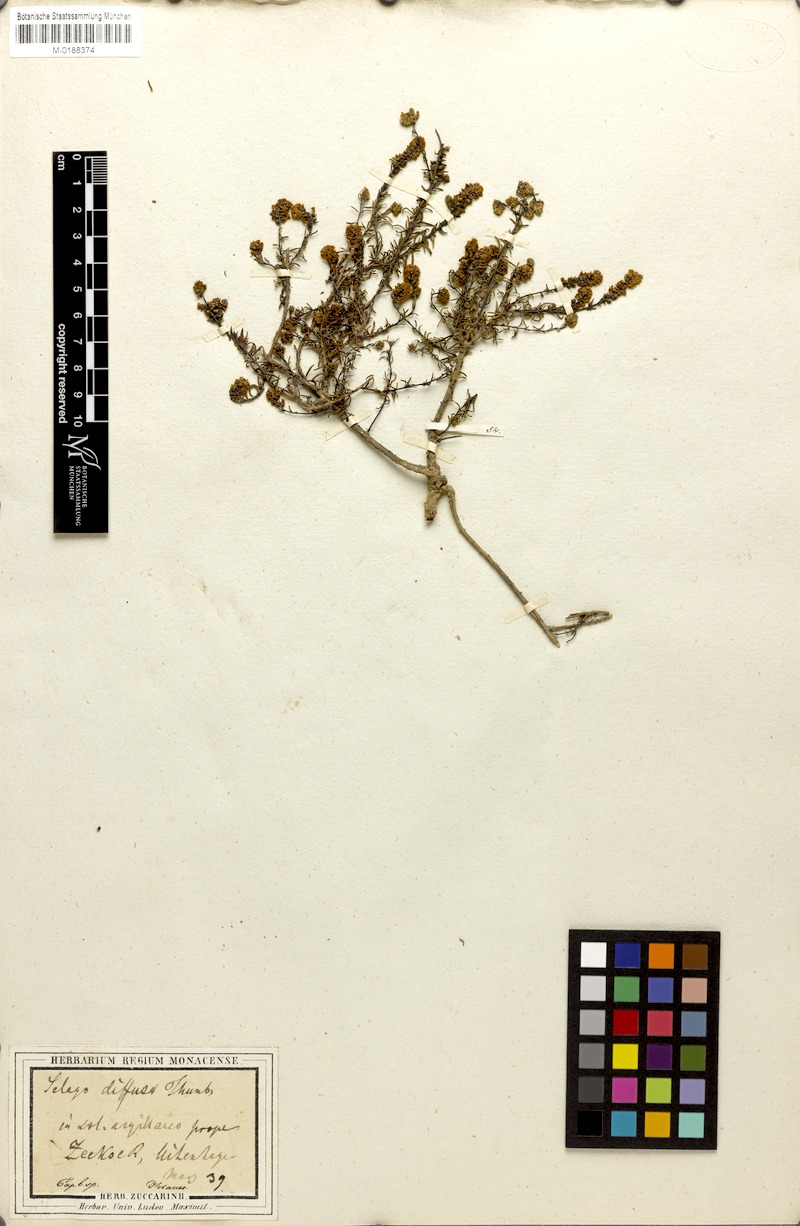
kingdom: Plantae
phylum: Tracheophyta
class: Magnoliopsida
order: Lamiales
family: Scrophulariaceae
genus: Selago
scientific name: Selago diffusa
